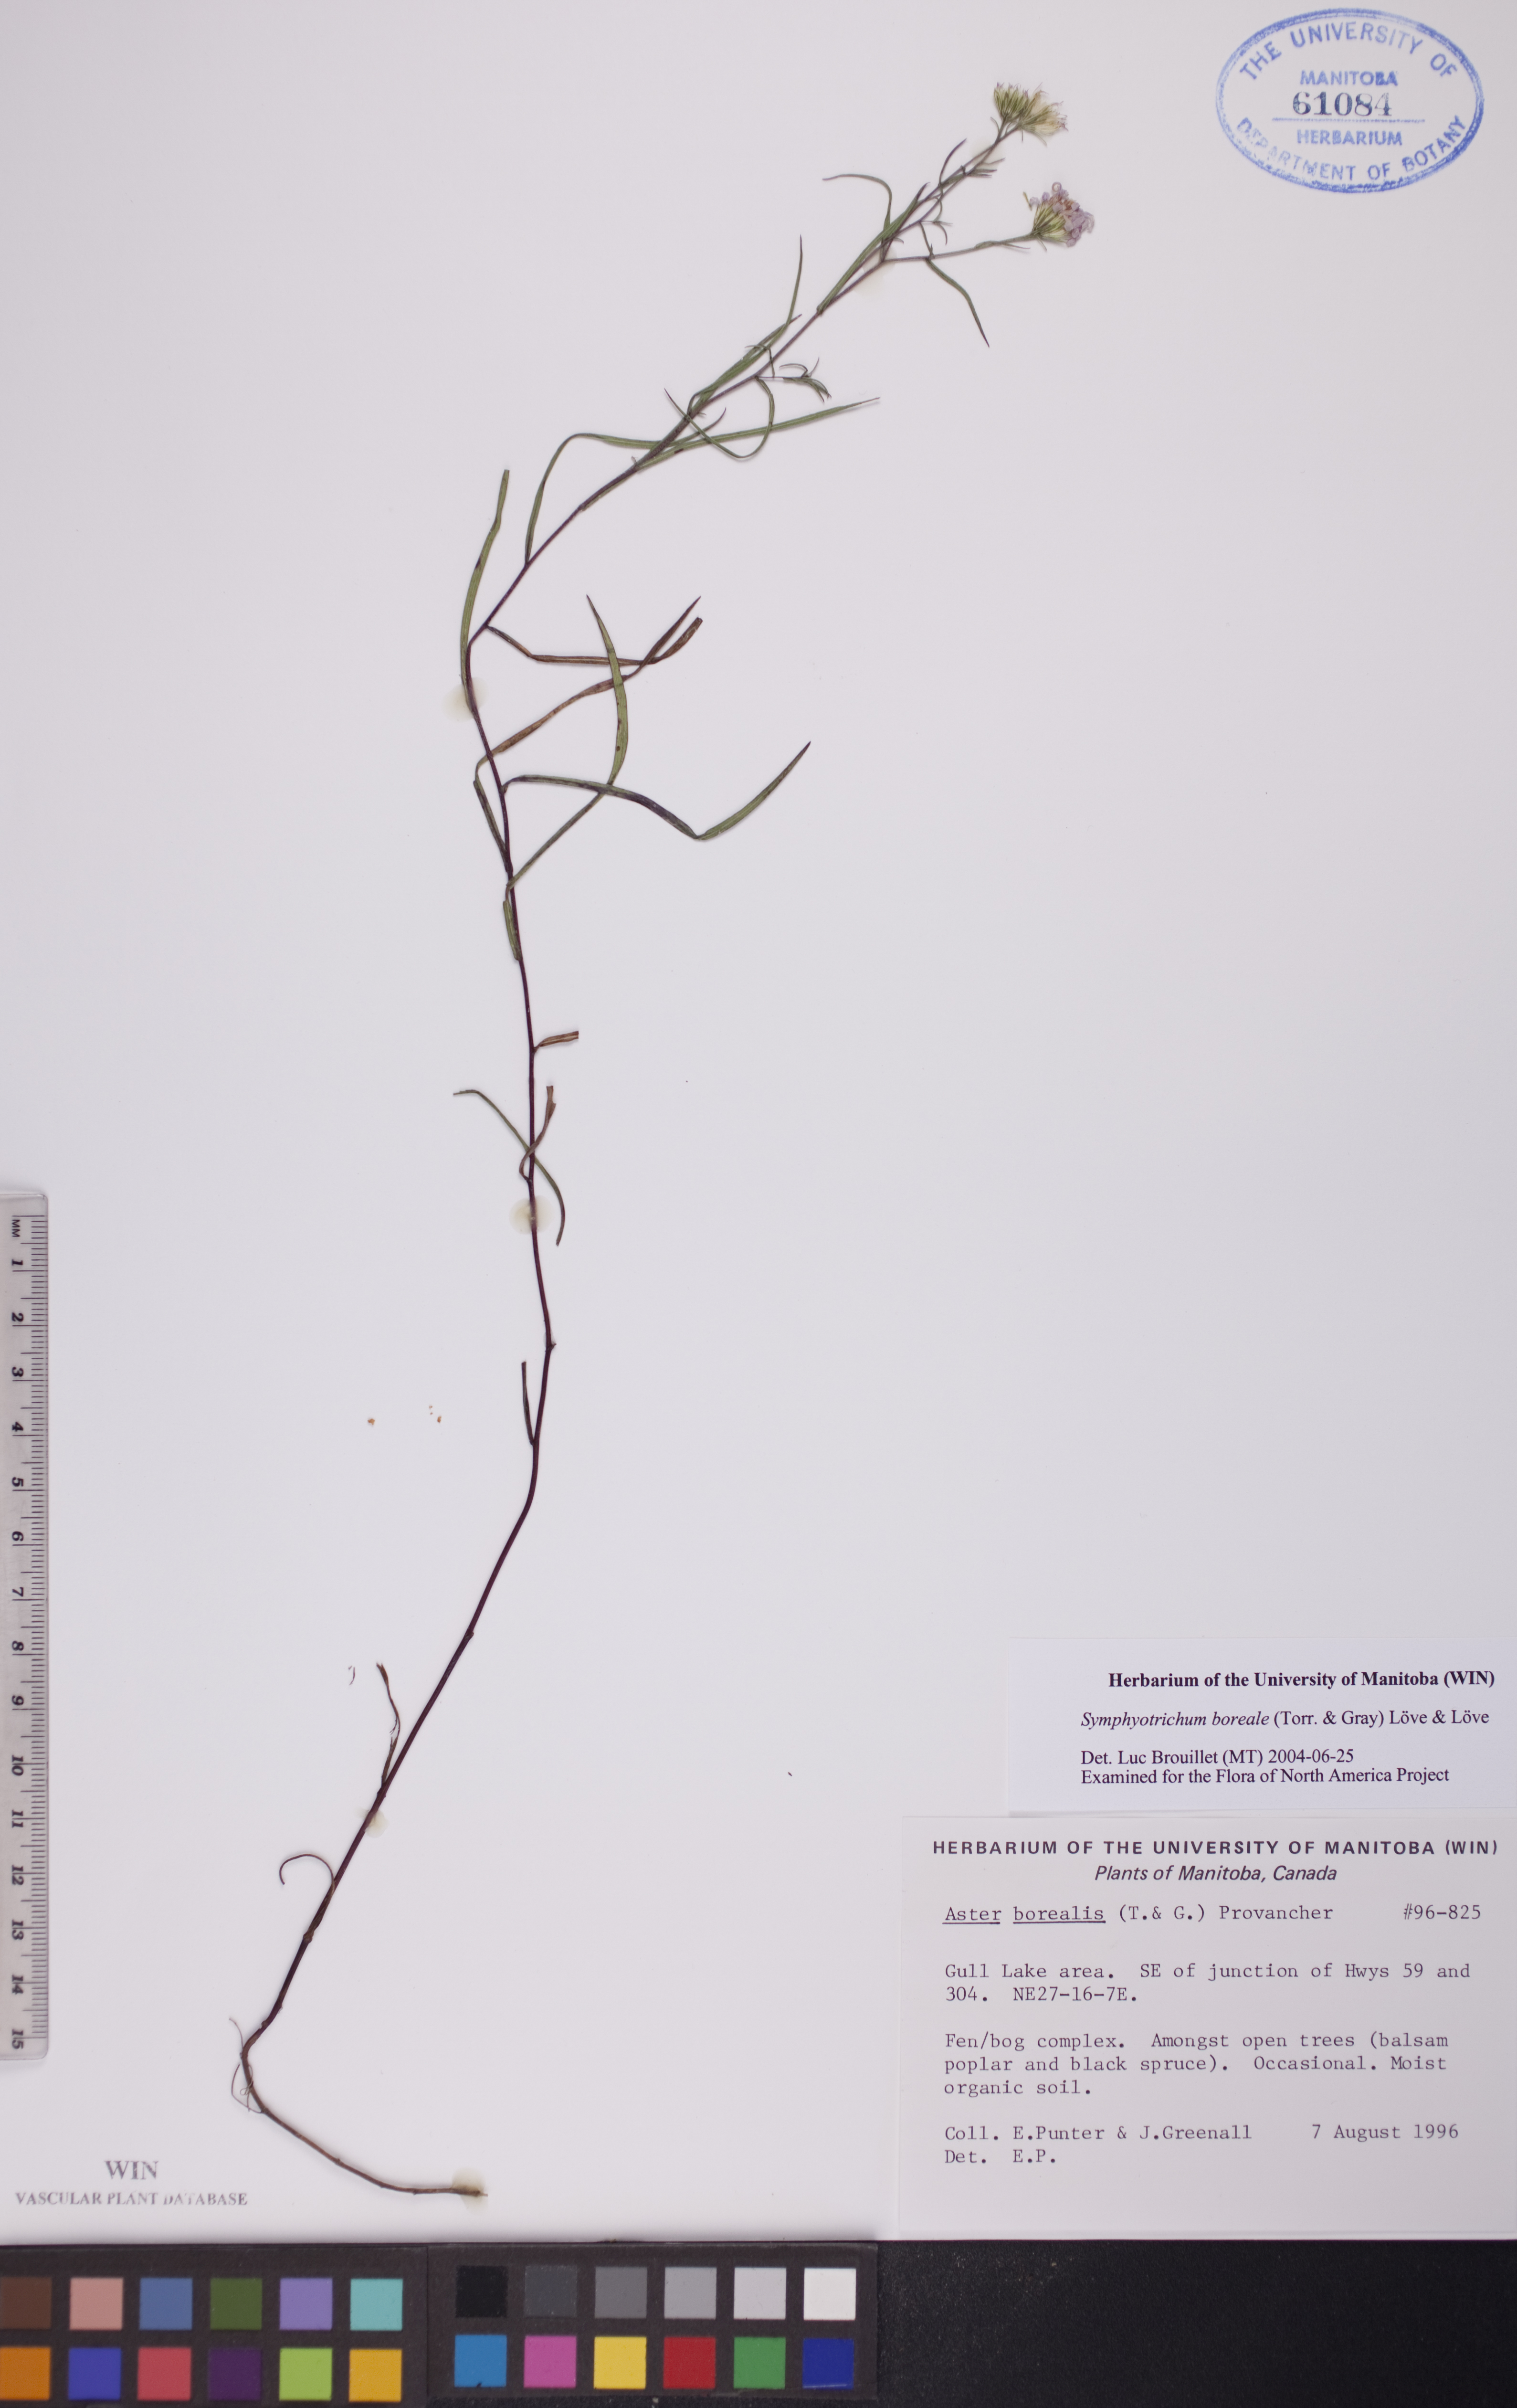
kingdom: Plantae
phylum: Tracheophyta
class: Magnoliopsida
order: Asterales
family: Asteraceae
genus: Symphyotrichum
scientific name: Symphyotrichum boreale
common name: Northern bog aster
